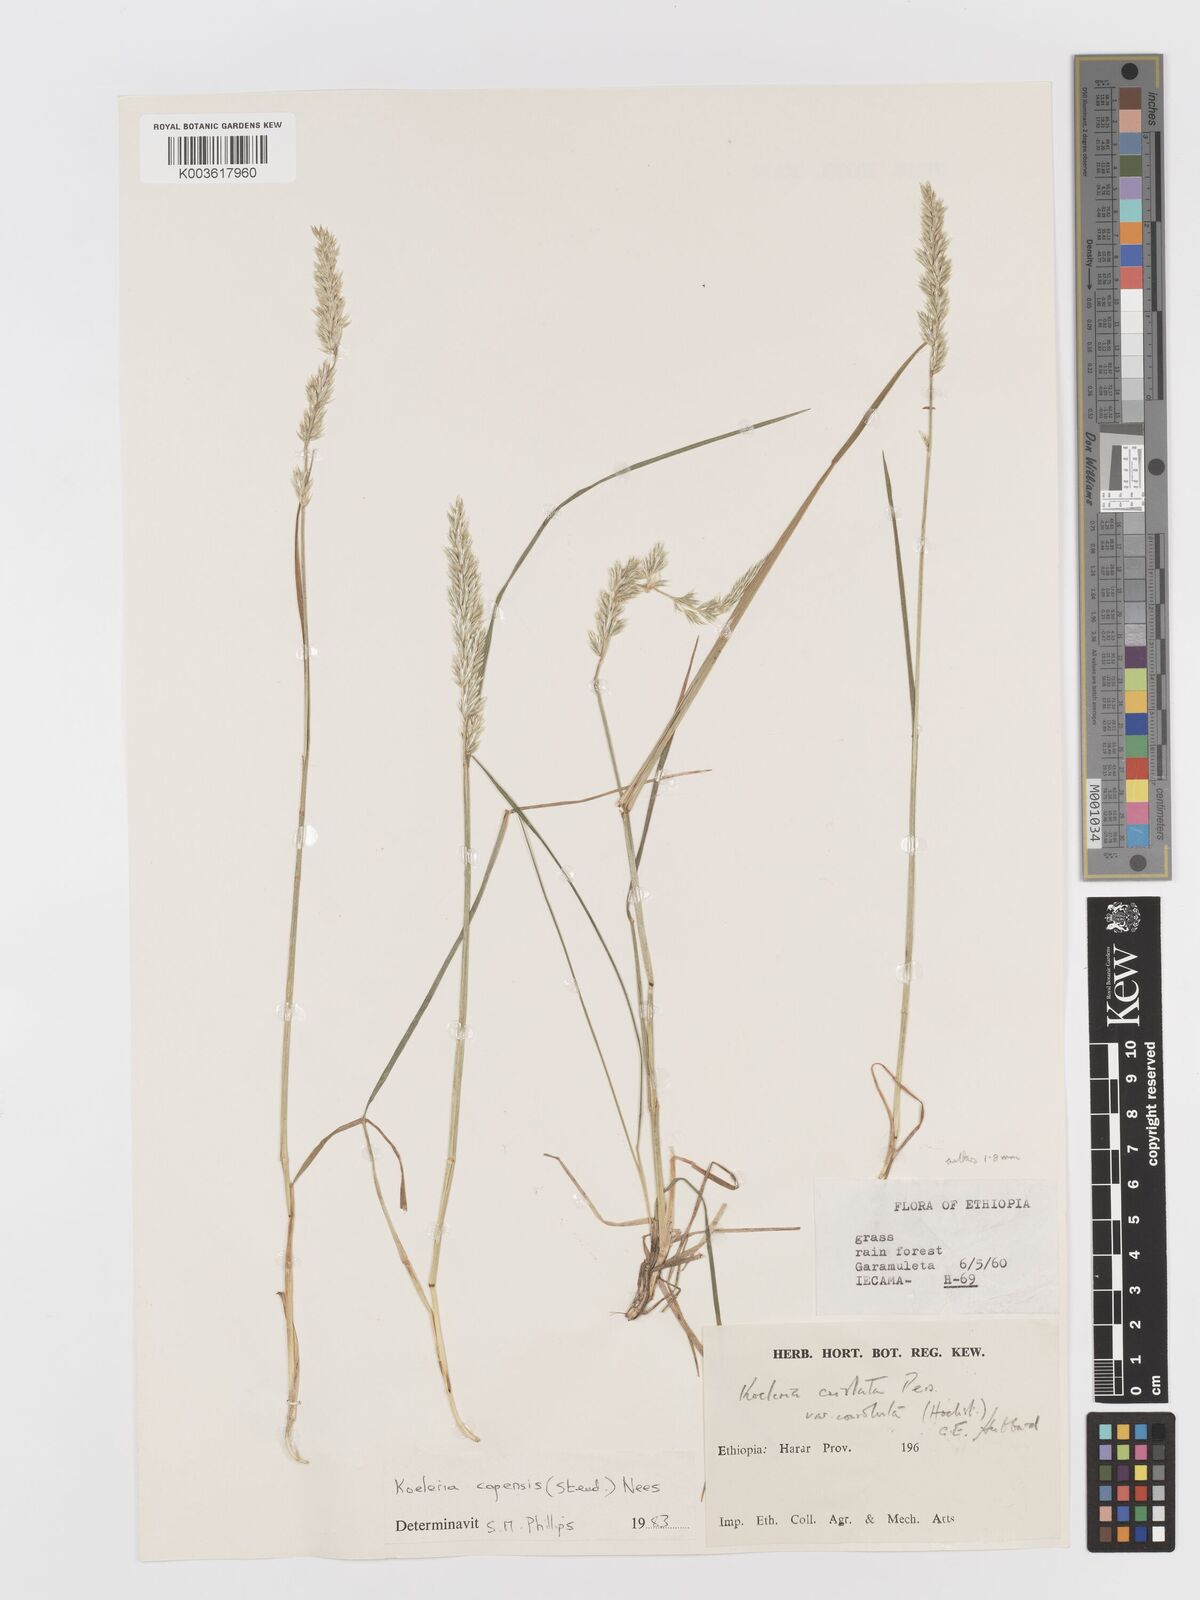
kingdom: Plantae
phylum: Tracheophyta
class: Liliopsida
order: Poales
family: Poaceae
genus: Koeleria
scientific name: Koeleria capensis
